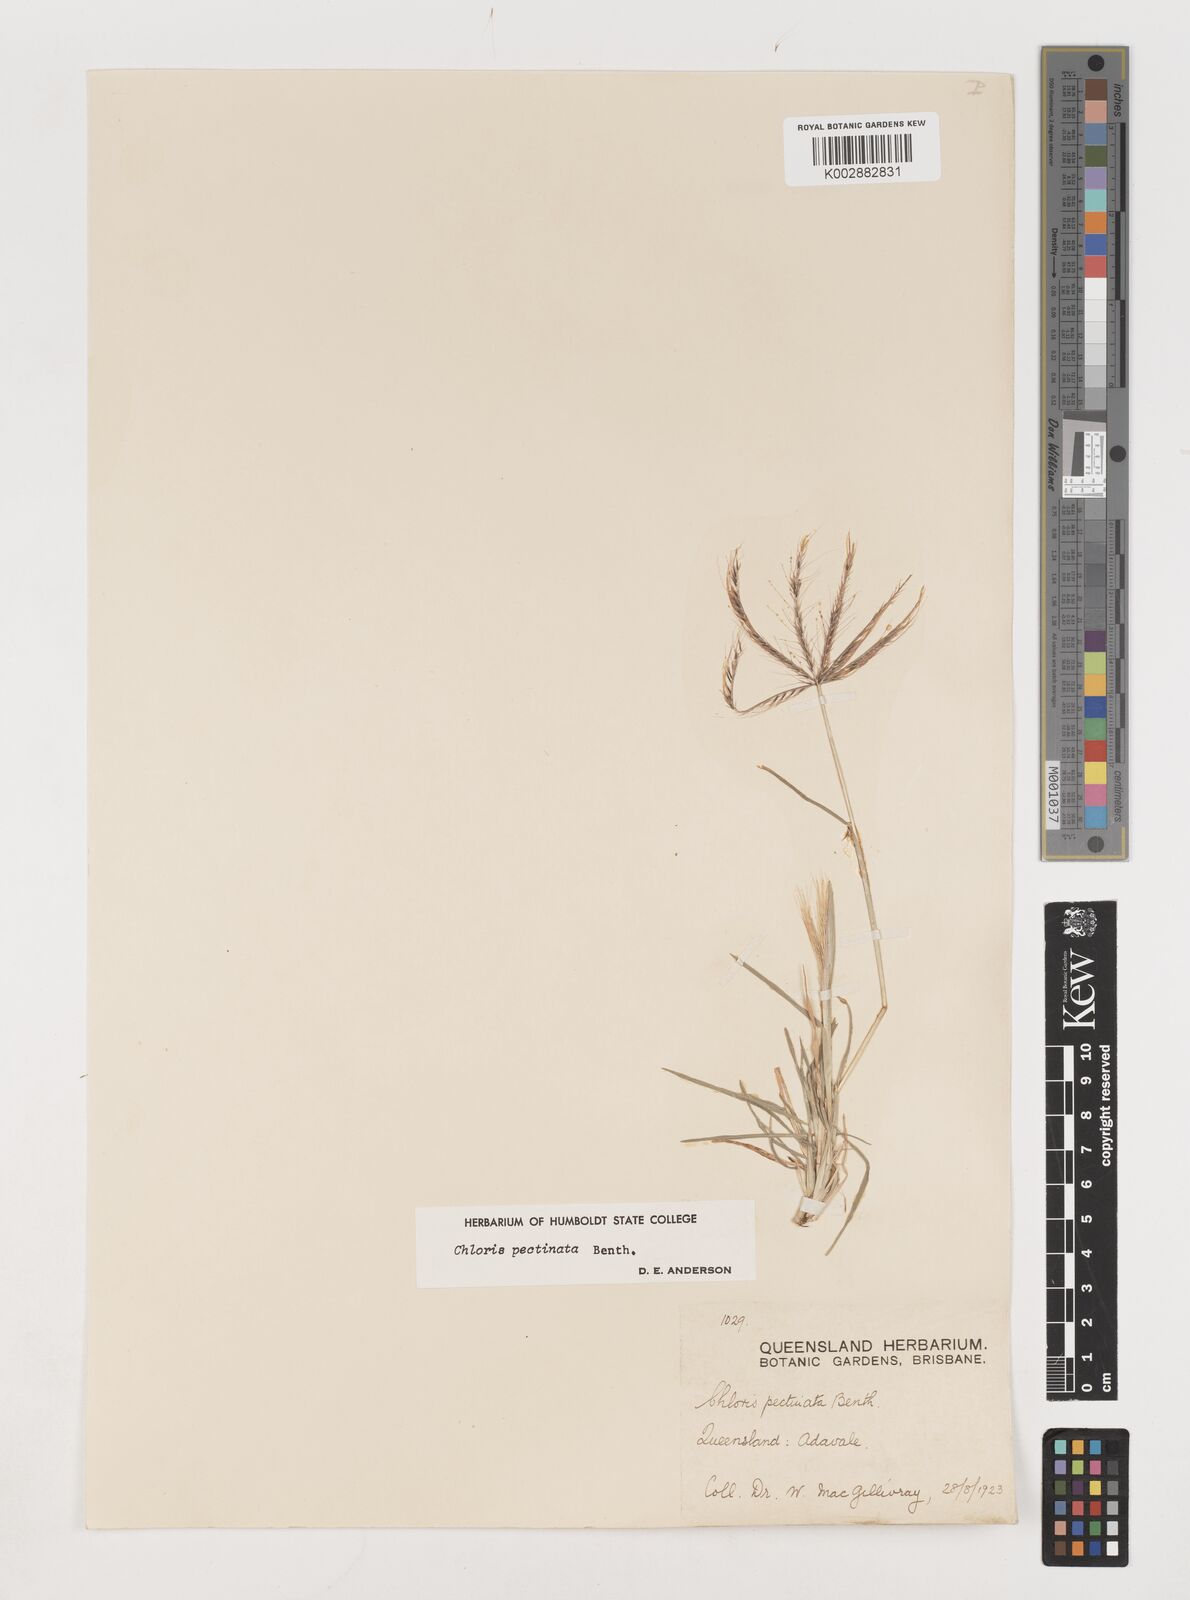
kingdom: Plantae
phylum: Tracheophyta
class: Liliopsida
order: Poales
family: Poaceae
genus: Chloris
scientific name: Chloris pectinata
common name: Comb windmill grass
